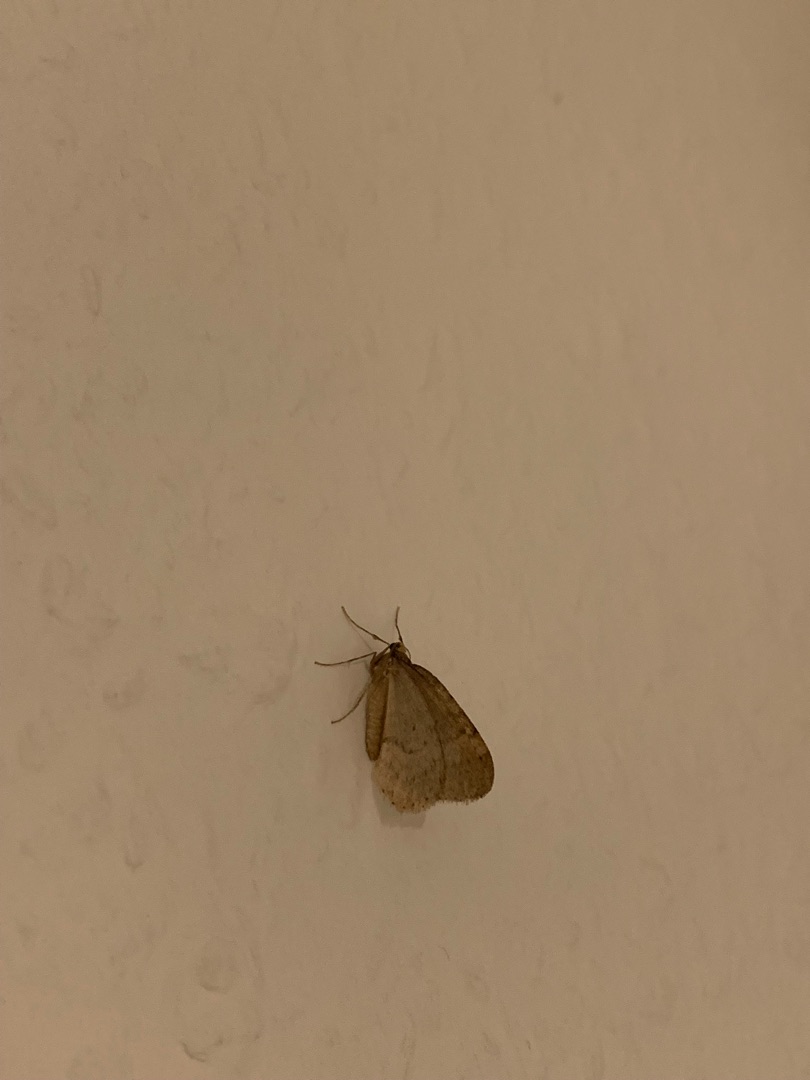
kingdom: Animalia
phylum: Arthropoda
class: Insecta
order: Lepidoptera
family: Geometridae
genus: Operophtera
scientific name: Operophtera brumata
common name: Lille frostmåler
